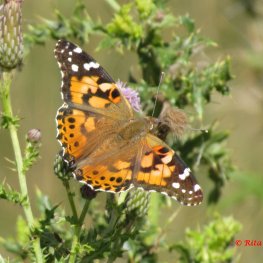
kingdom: Animalia
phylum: Arthropoda
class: Insecta
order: Lepidoptera
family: Nymphalidae
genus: Vanessa
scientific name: Vanessa cardui
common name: Painted Lady
